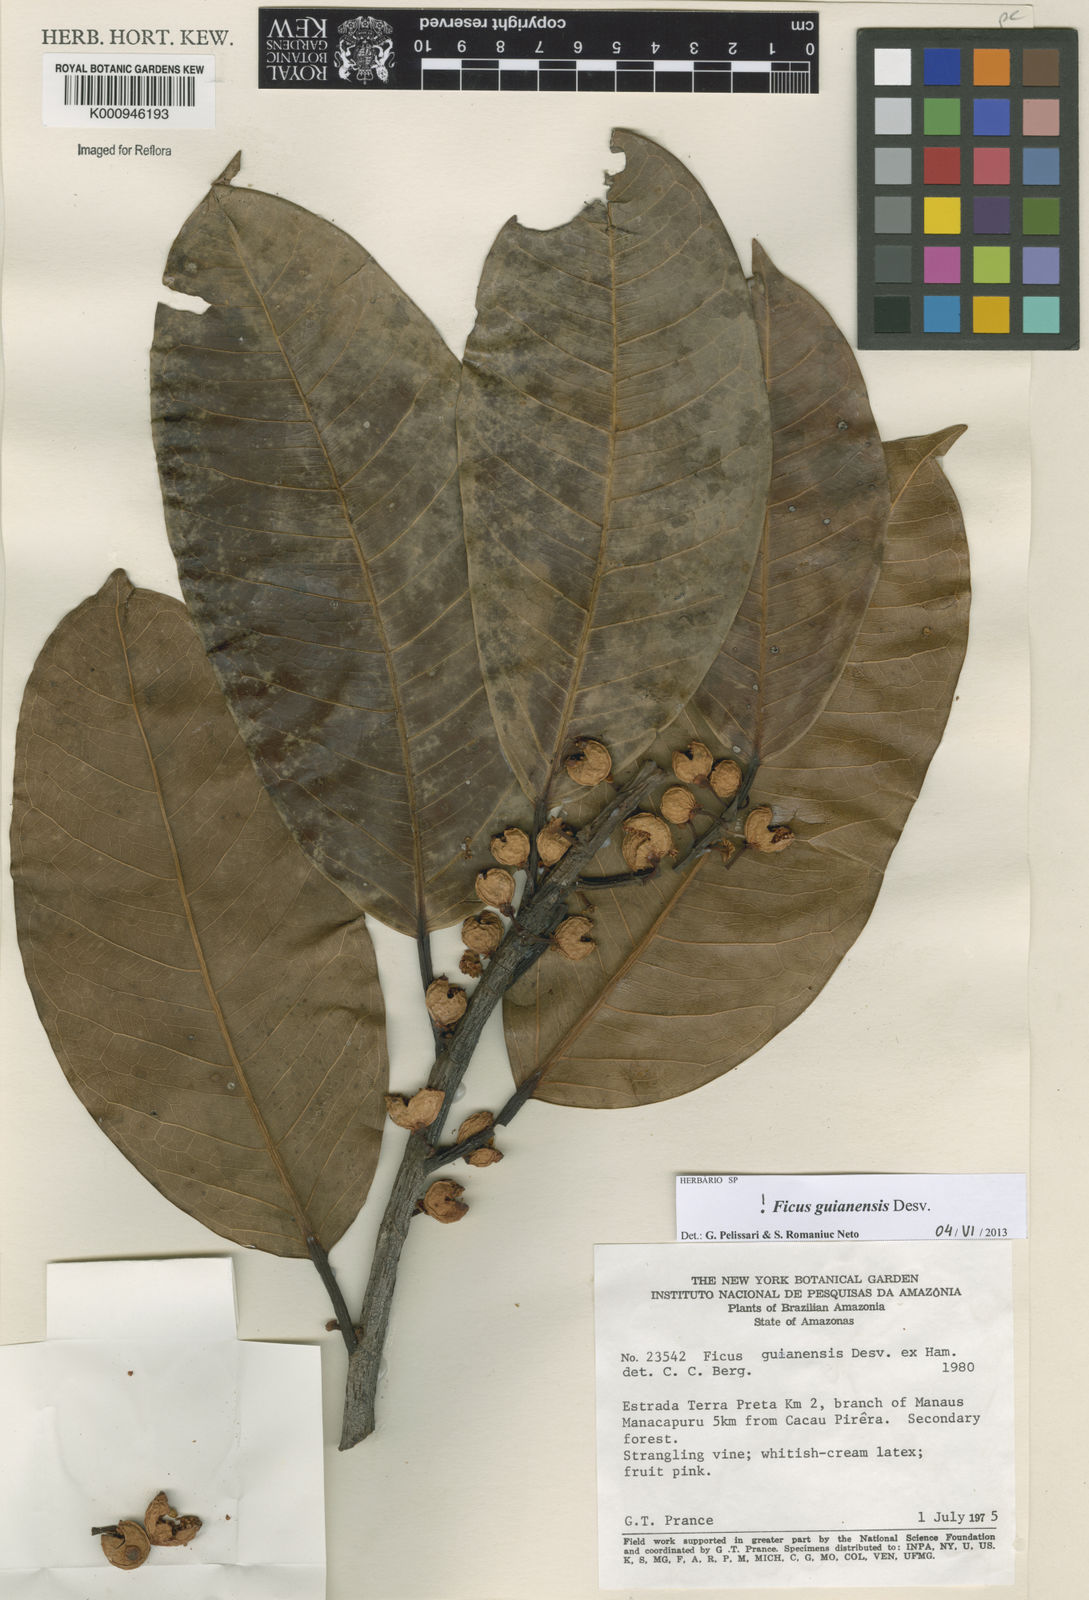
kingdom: Plantae
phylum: Tracheophyta
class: Magnoliopsida
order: Rosales
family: Moraceae
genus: Ficus
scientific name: Ficus americana
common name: Jamaican cherry fig
